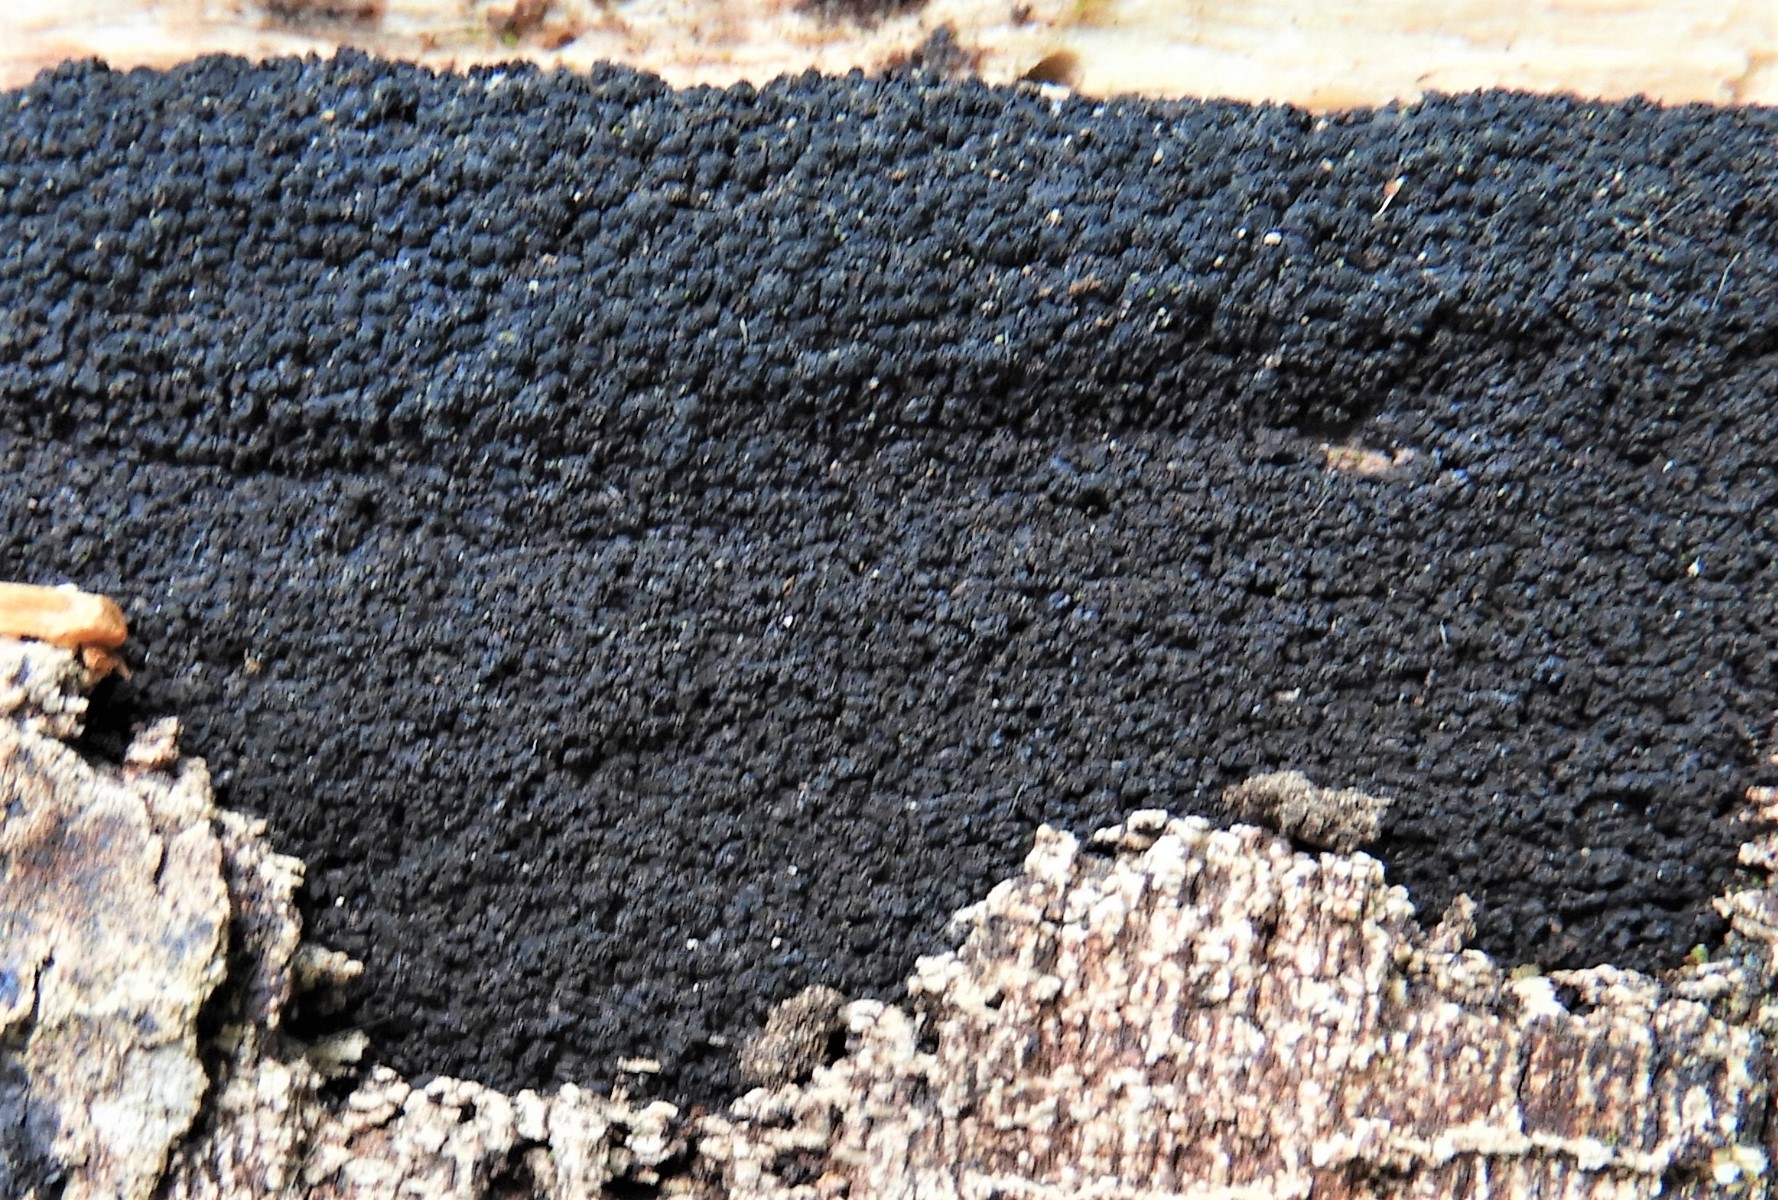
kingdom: Fungi
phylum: Ascomycota
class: Sordariomycetes
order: Xylariales
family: Diatrypaceae
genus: Eutypa
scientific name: Eutypa spinosa
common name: grov kulskorpe
